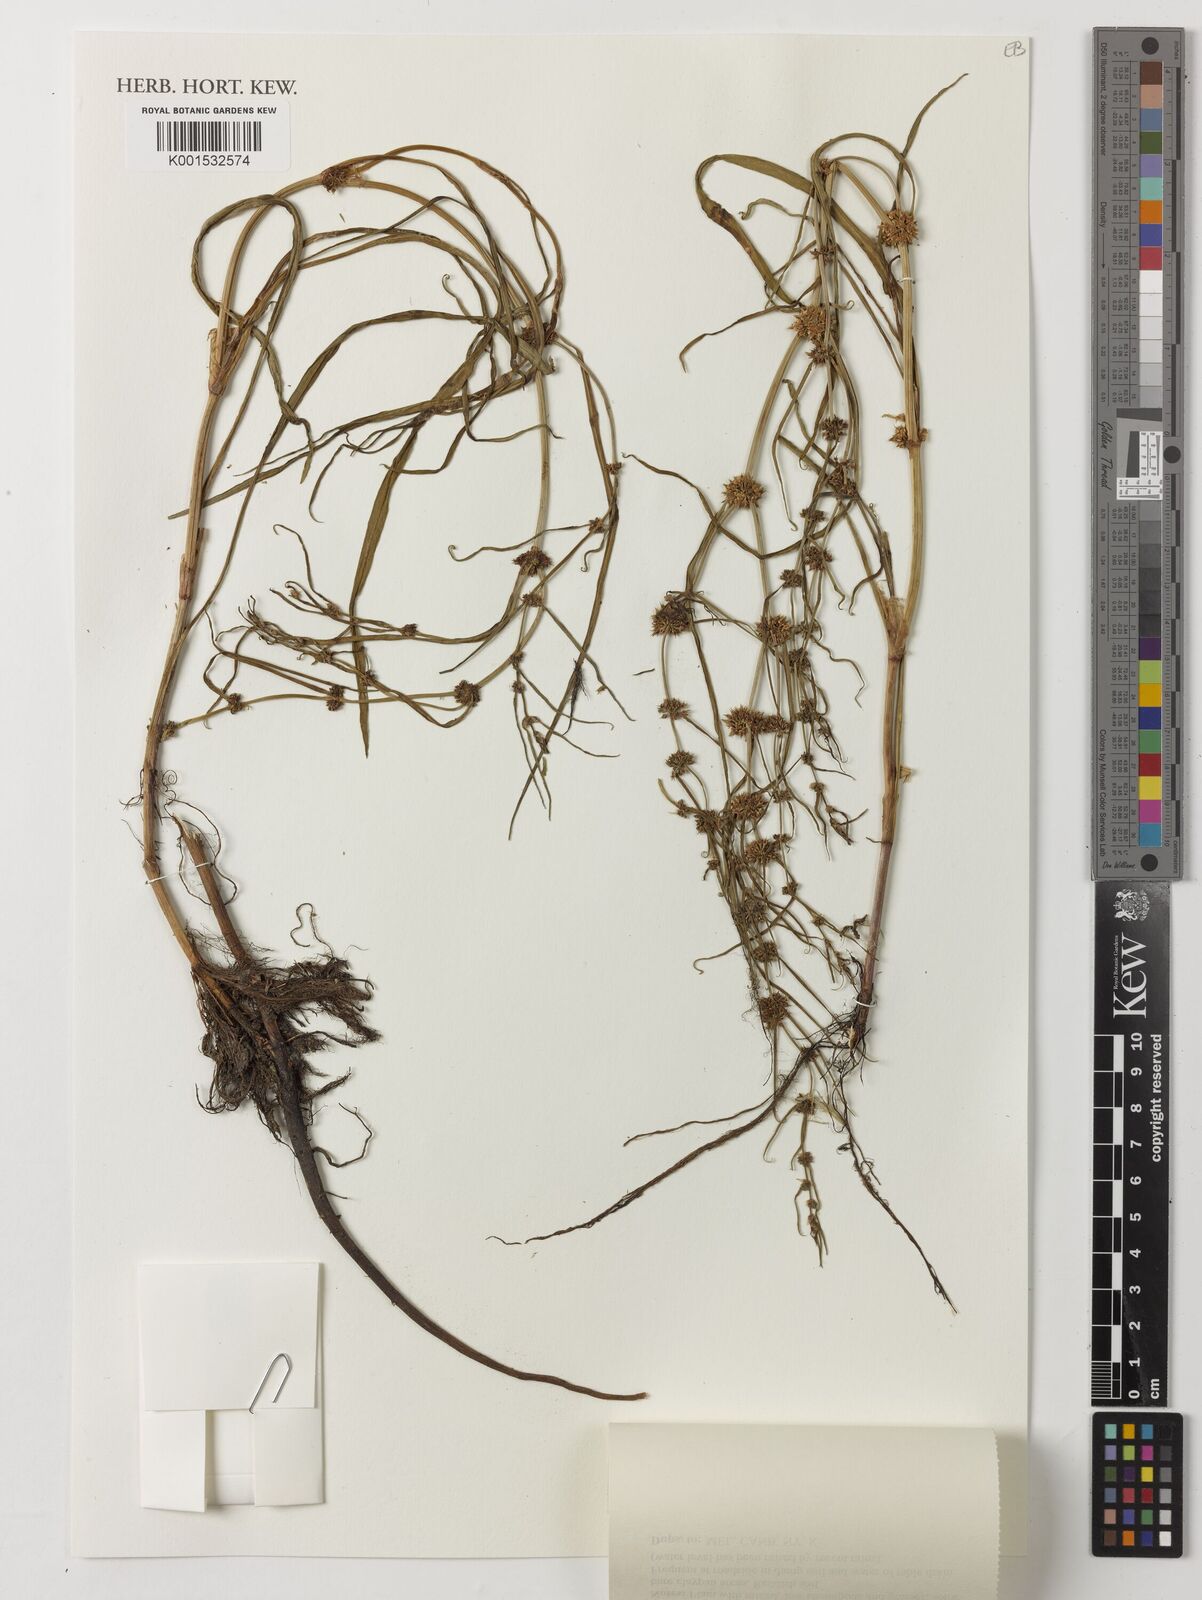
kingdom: Plantae
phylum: Tracheophyta
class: Magnoliopsida
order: Caryophyllales
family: Polygonaceae
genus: Rumex
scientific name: Rumex tenax
